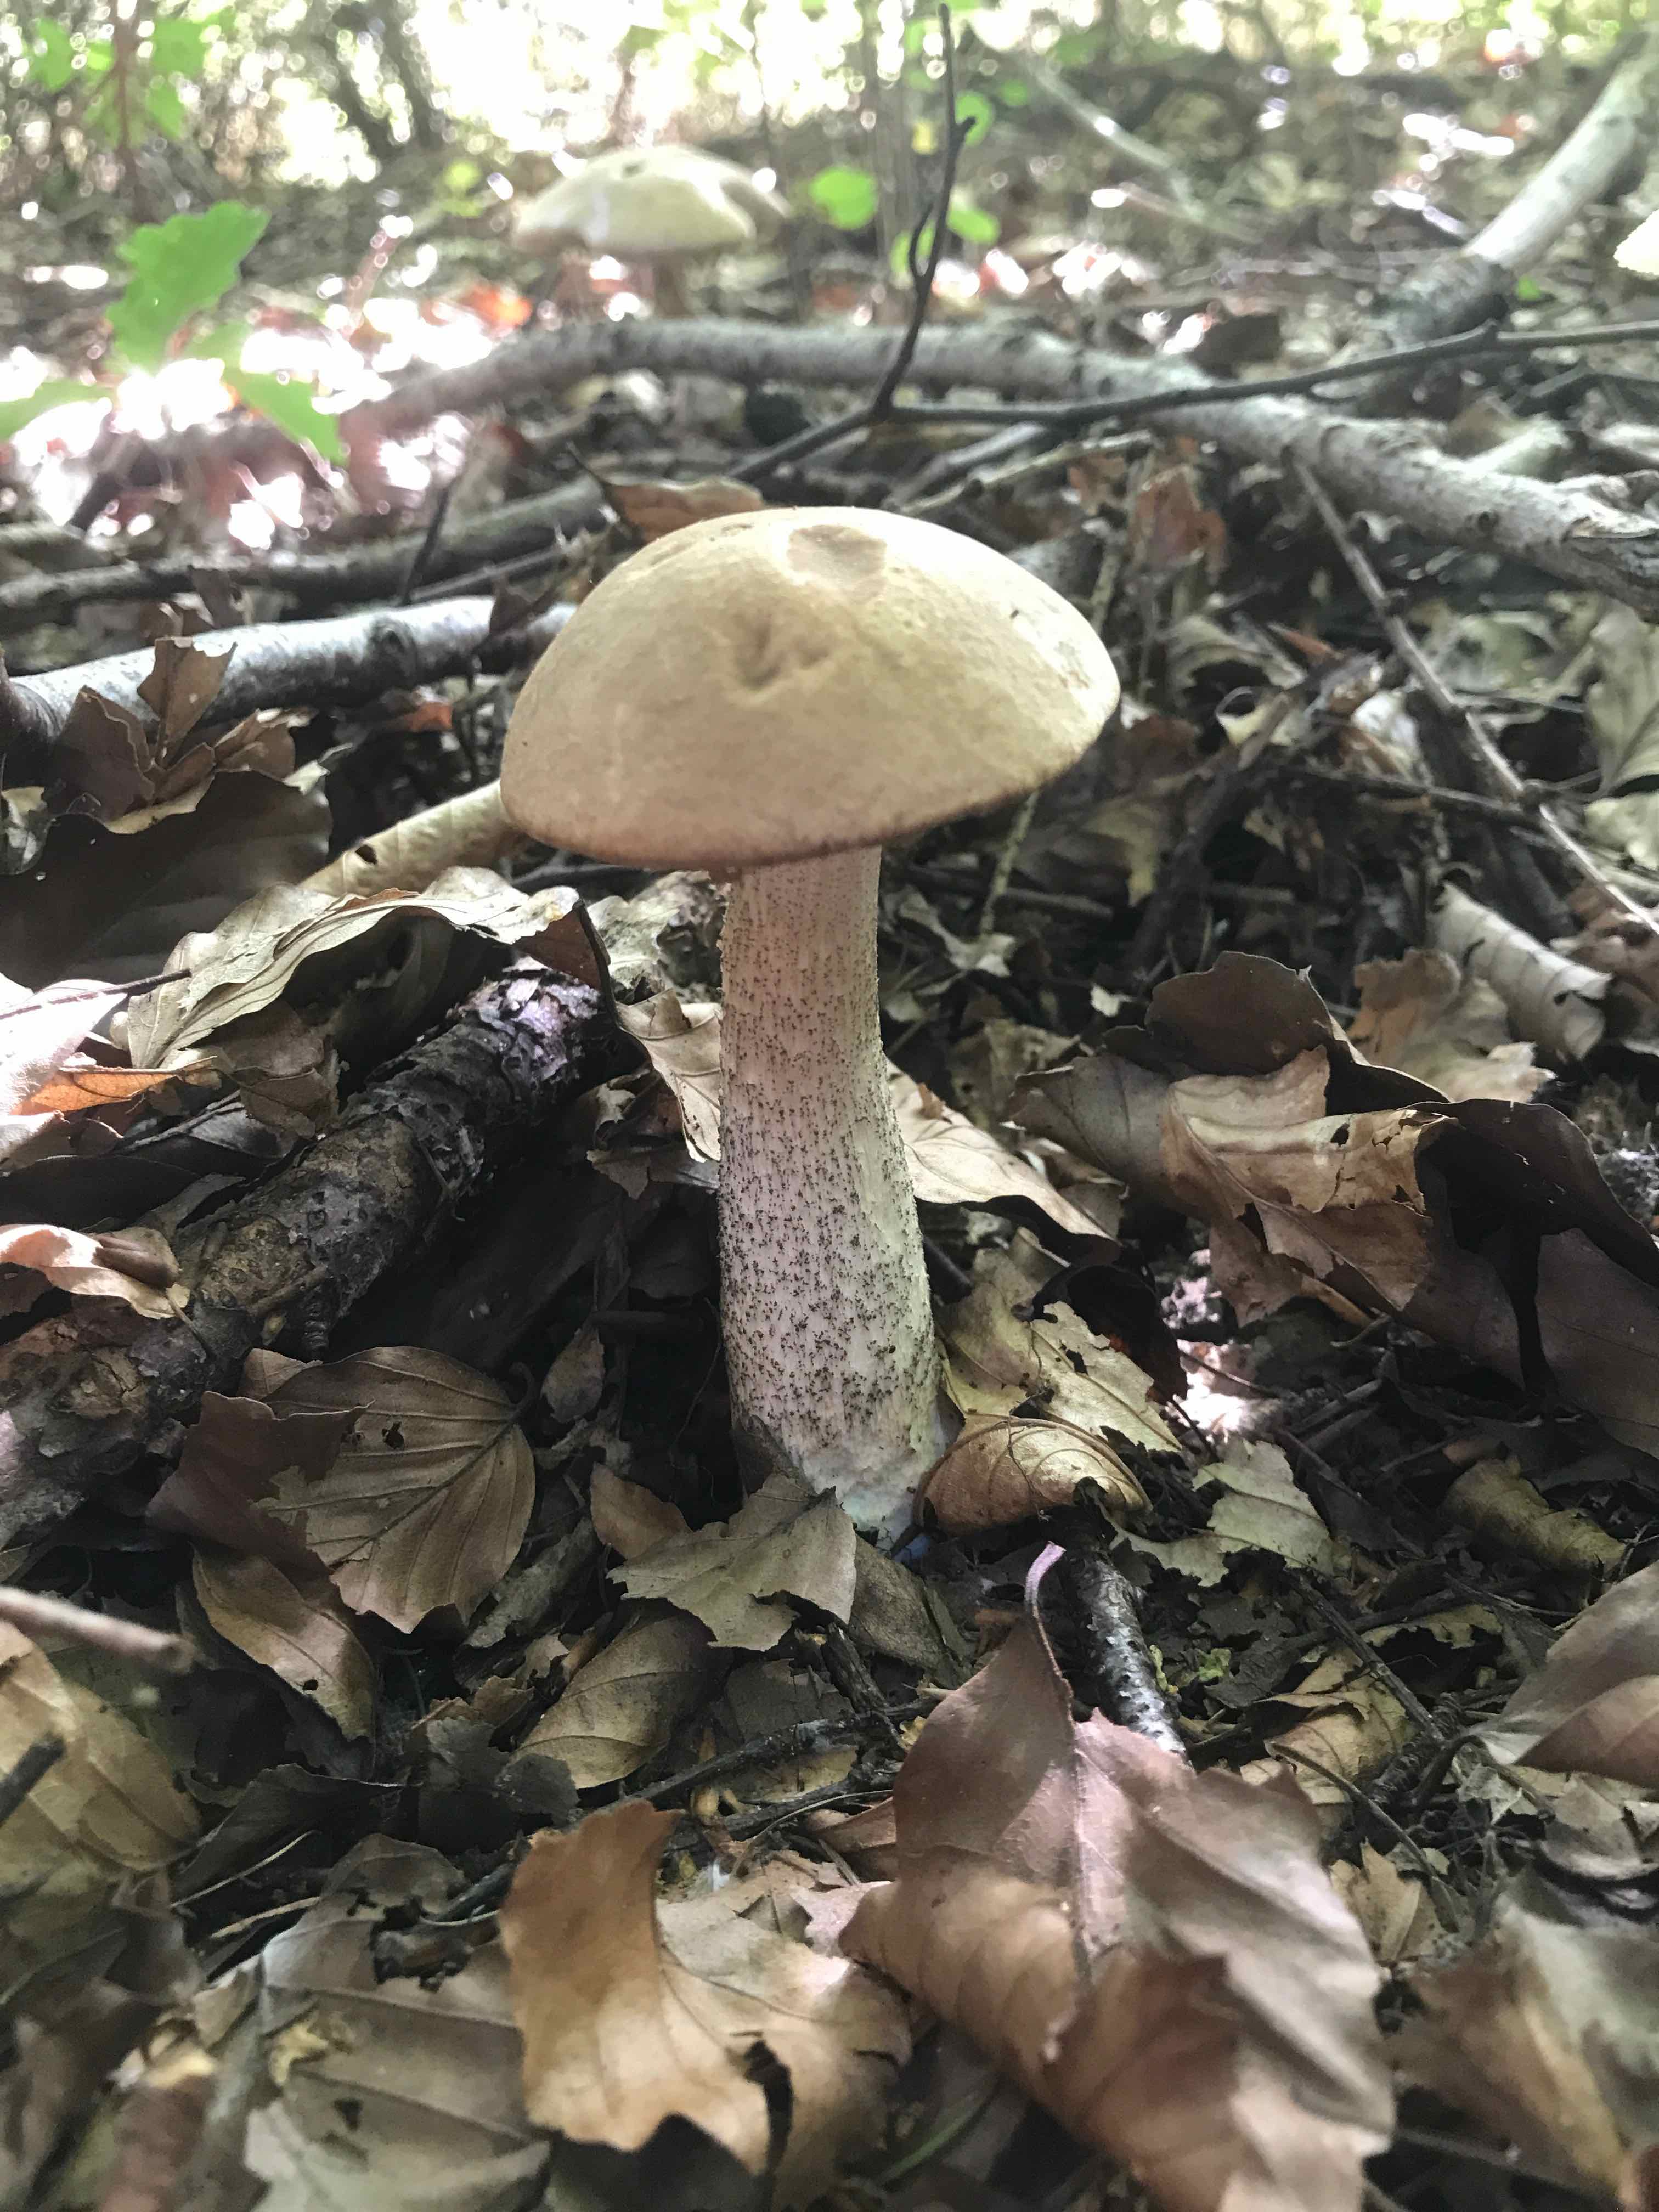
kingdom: Fungi
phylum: Basidiomycota
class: Agaricomycetes
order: Boletales
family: Boletaceae
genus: Leccinum
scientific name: Leccinum
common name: skælrørhat
